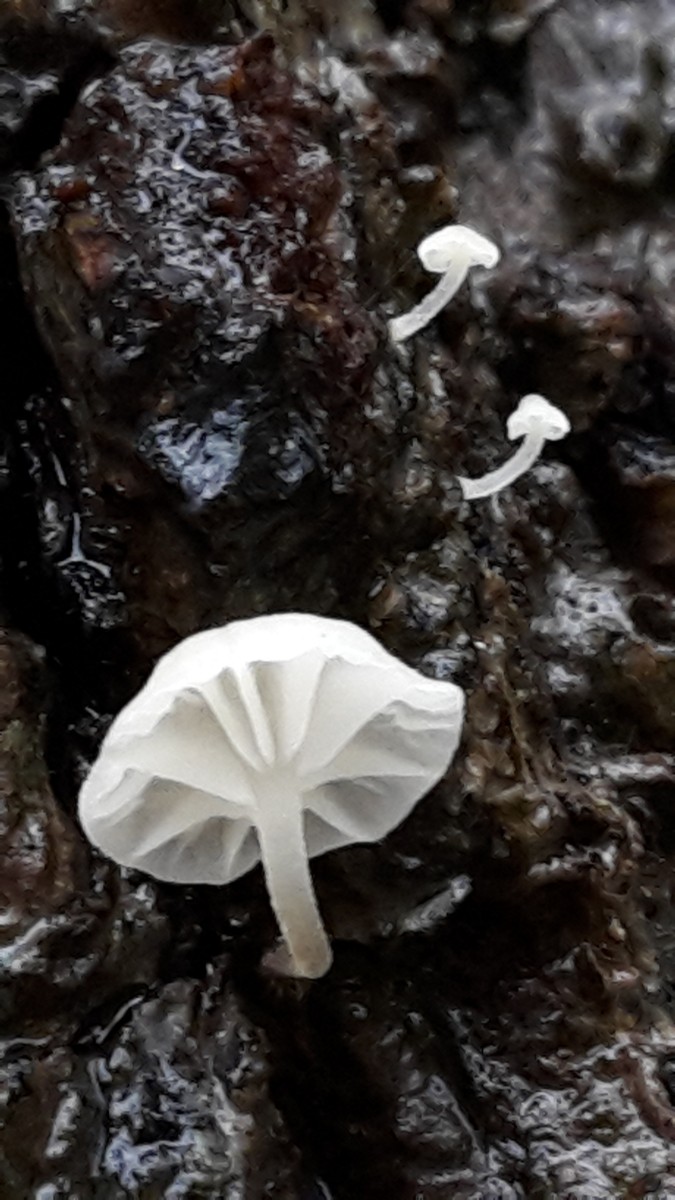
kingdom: Fungi
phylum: Basidiomycota
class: Agaricomycetes
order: Agaricales
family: Mycenaceae
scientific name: Mycenaceae
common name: huesvampfamilien
